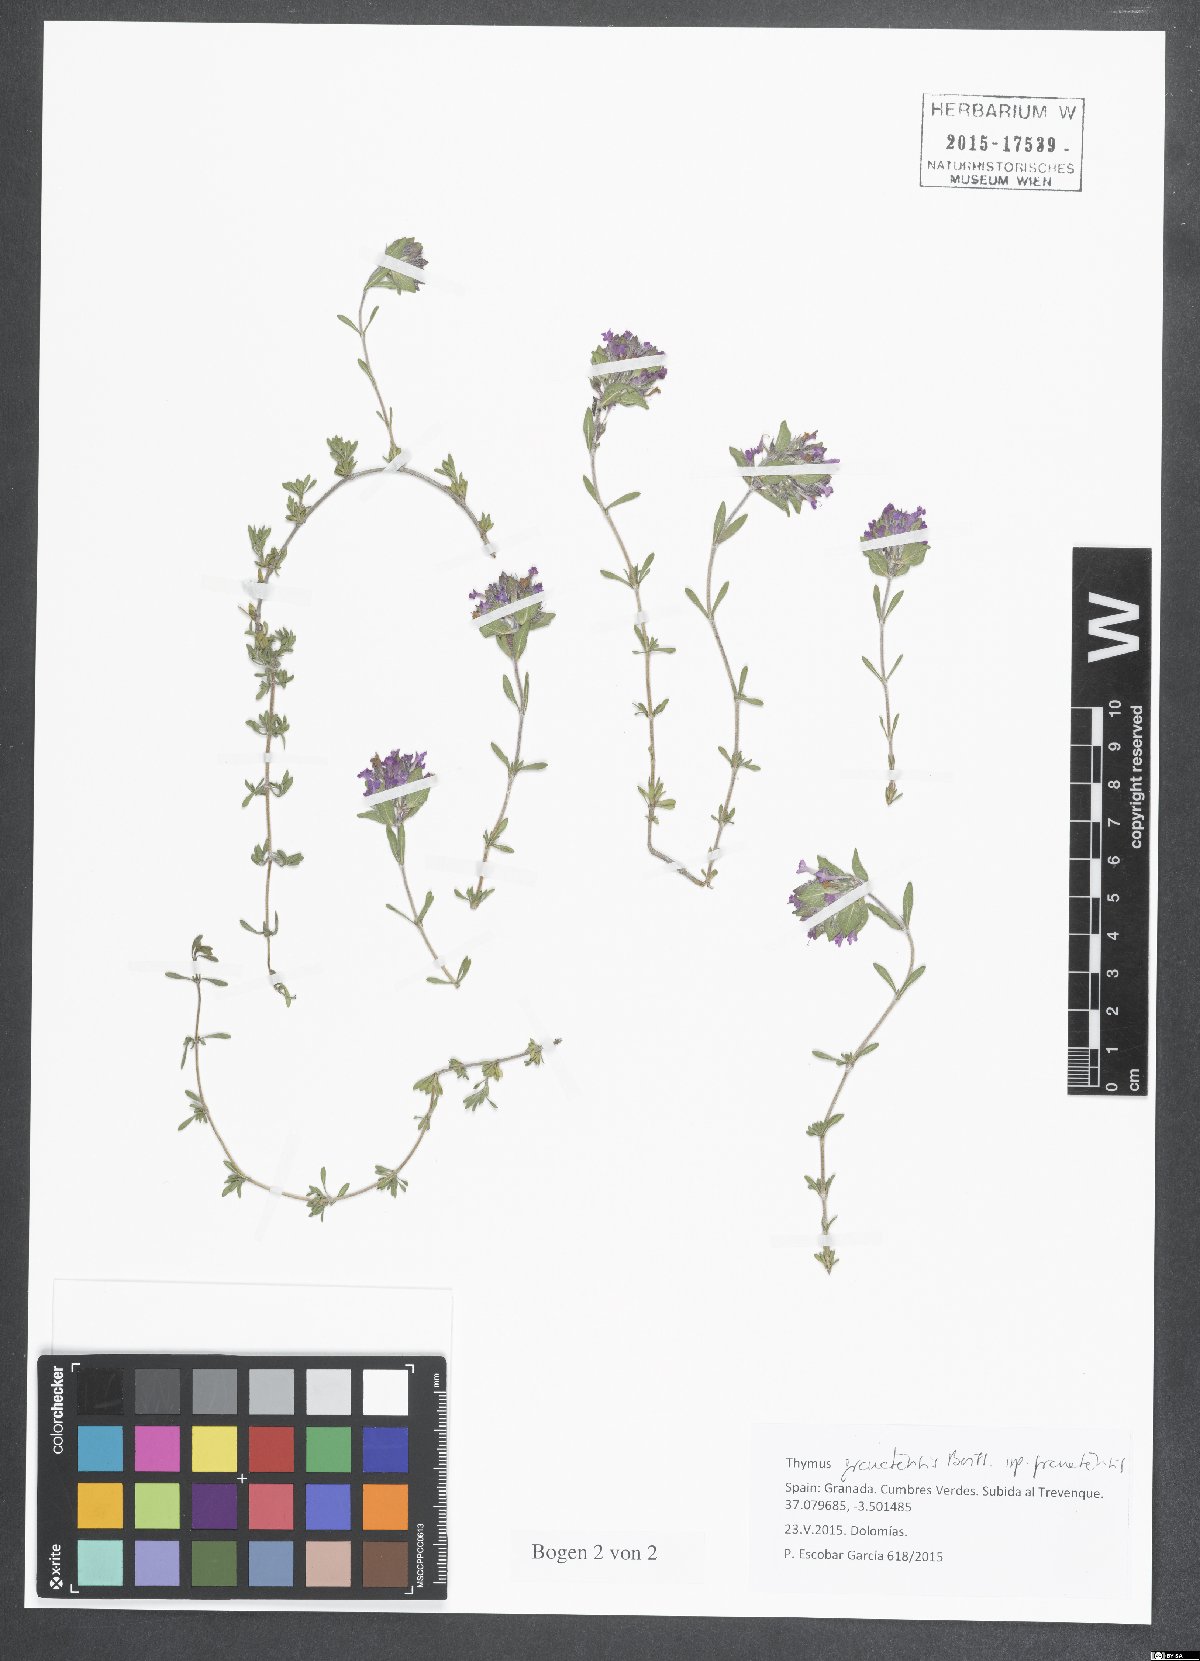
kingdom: Plantae
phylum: Tracheophyta
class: Magnoliopsida
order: Lamiales
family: Lamiaceae
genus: Thymus
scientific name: Thymus granatensis
